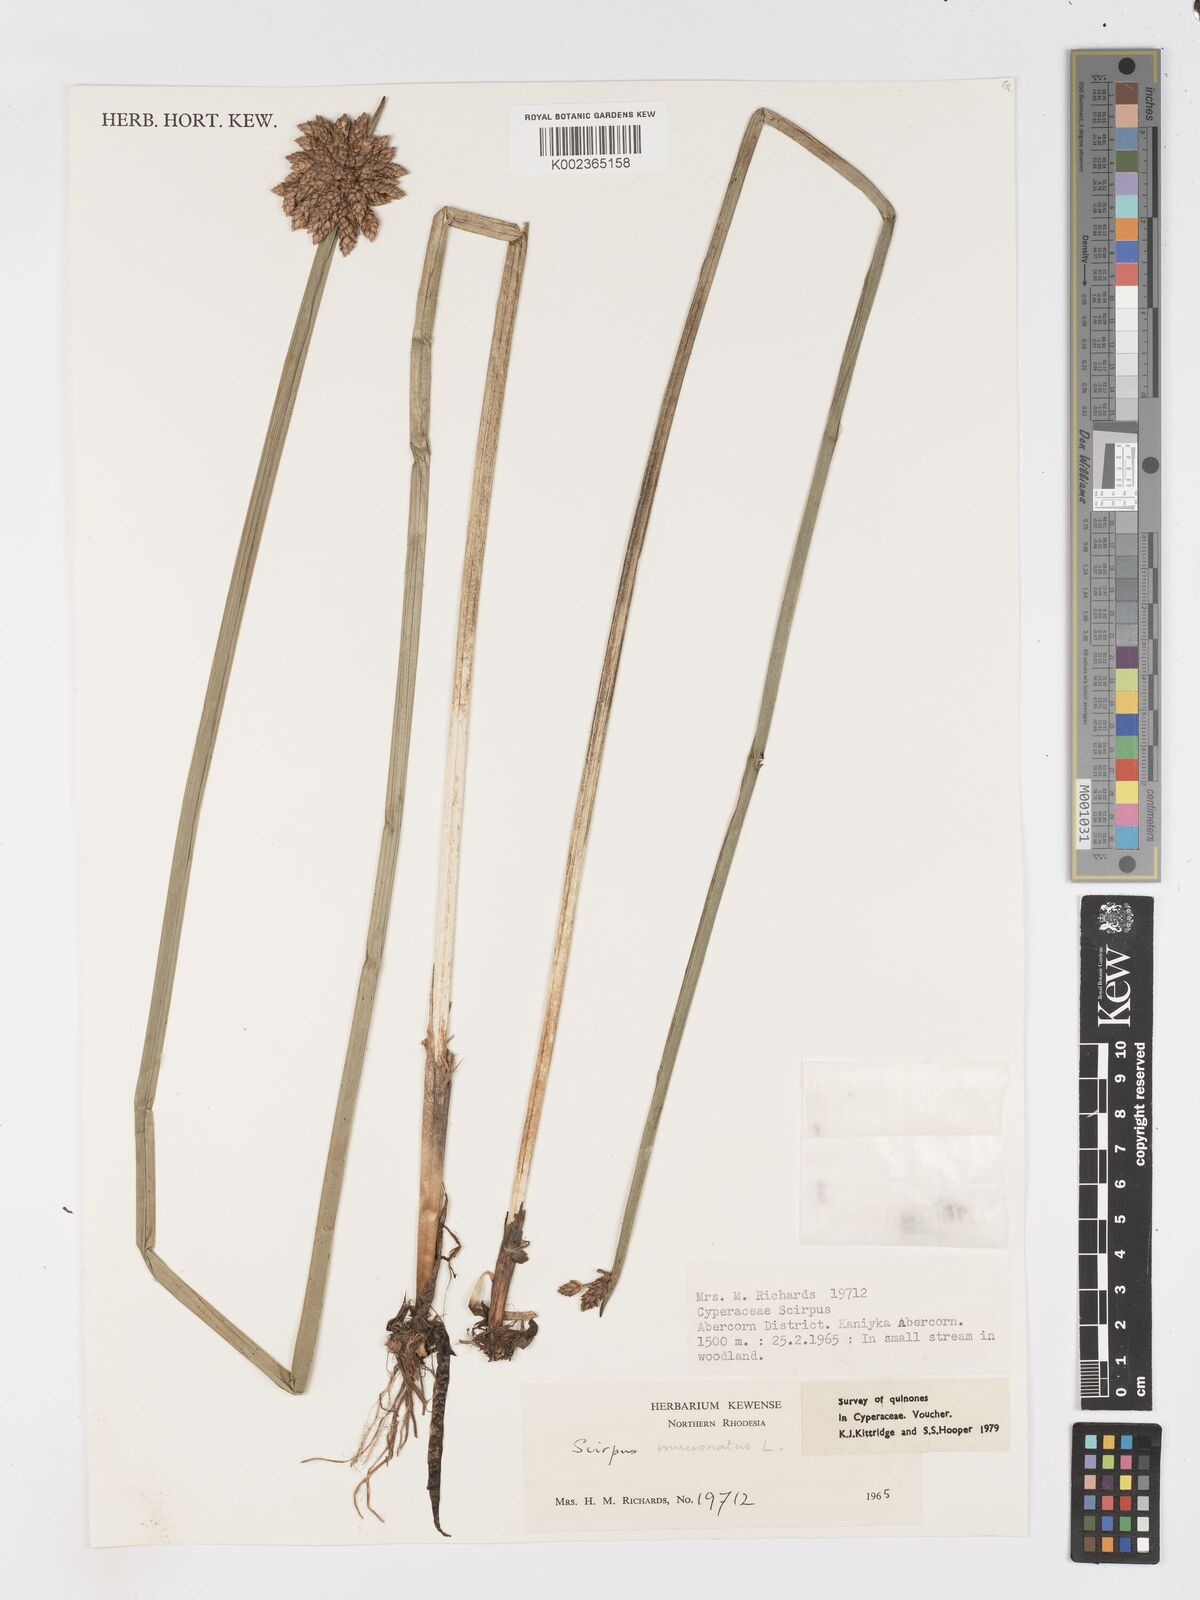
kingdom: Plantae
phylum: Tracheophyta
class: Liliopsida
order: Poales
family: Cyperaceae
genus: Schoenoplectiella
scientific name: Schoenoplectiella mucronata
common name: Bog bulrush
